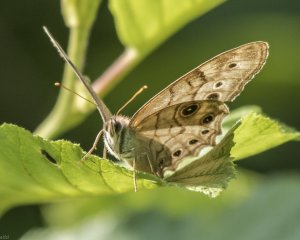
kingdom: Animalia
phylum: Arthropoda
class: Insecta
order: Lepidoptera
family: Nymphalidae
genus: Lethe
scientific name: Lethe anthedon
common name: Northern Pearly-Eye
